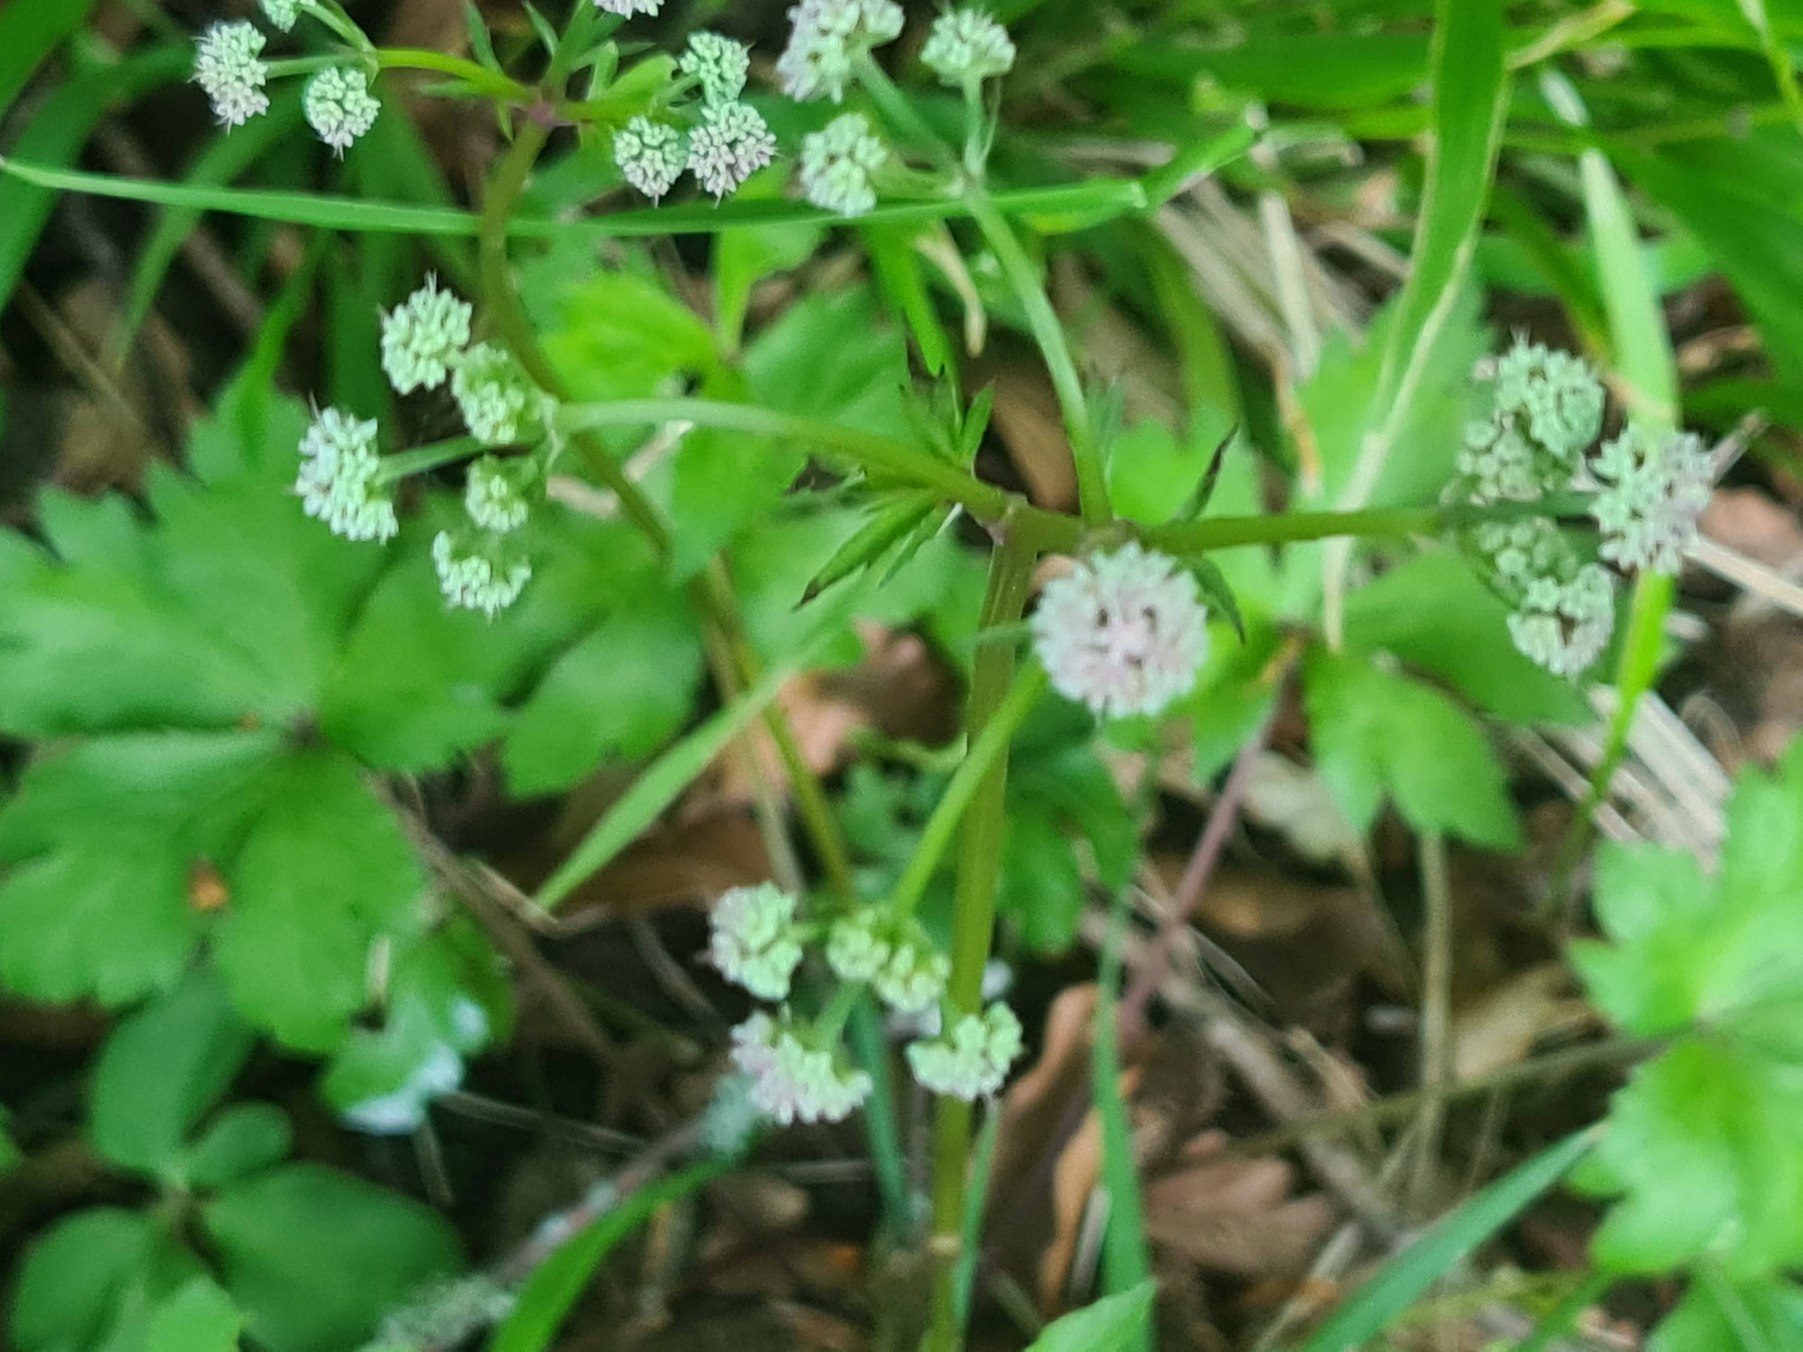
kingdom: Plantae
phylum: Tracheophyta
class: Magnoliopsida
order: Apiales
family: Apiaceae
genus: Sanicula
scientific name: Sanicula europaea
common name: Sanikel
